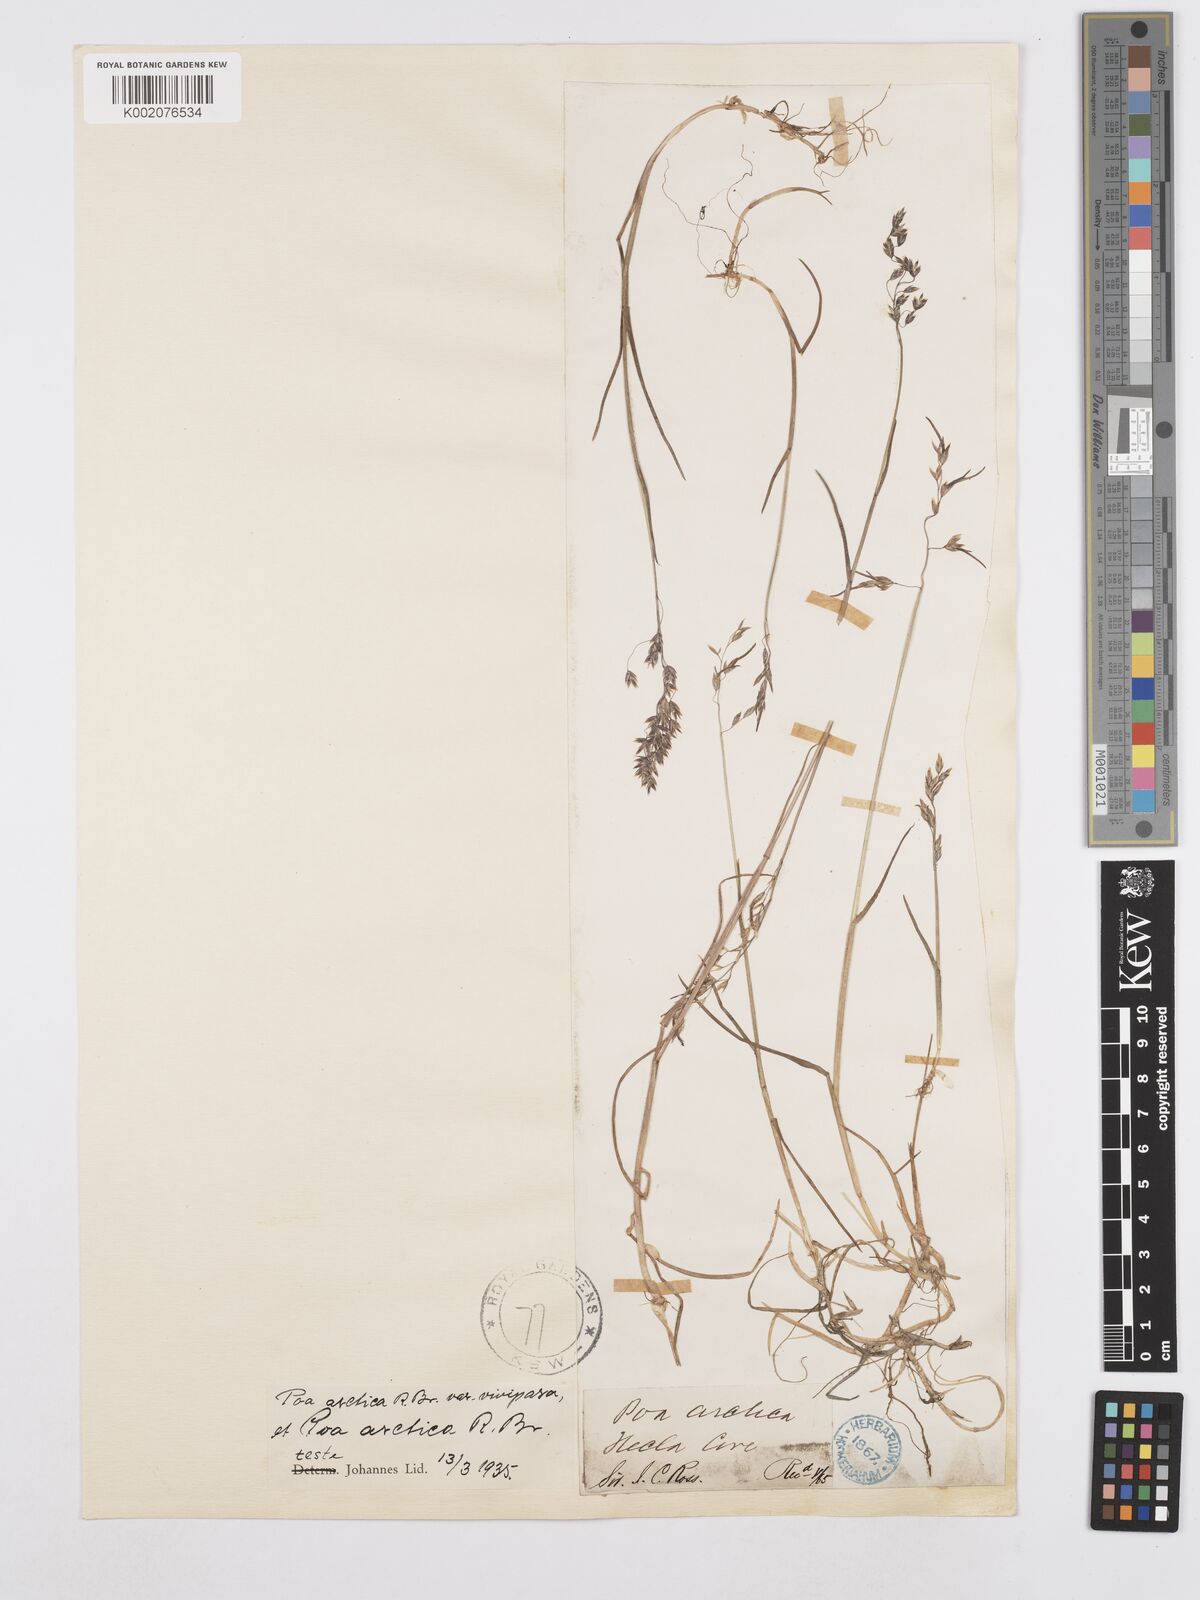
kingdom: Plantae
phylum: Tracheophyta
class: Liliopsida
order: Poales
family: Poaceae
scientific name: Poaceae
